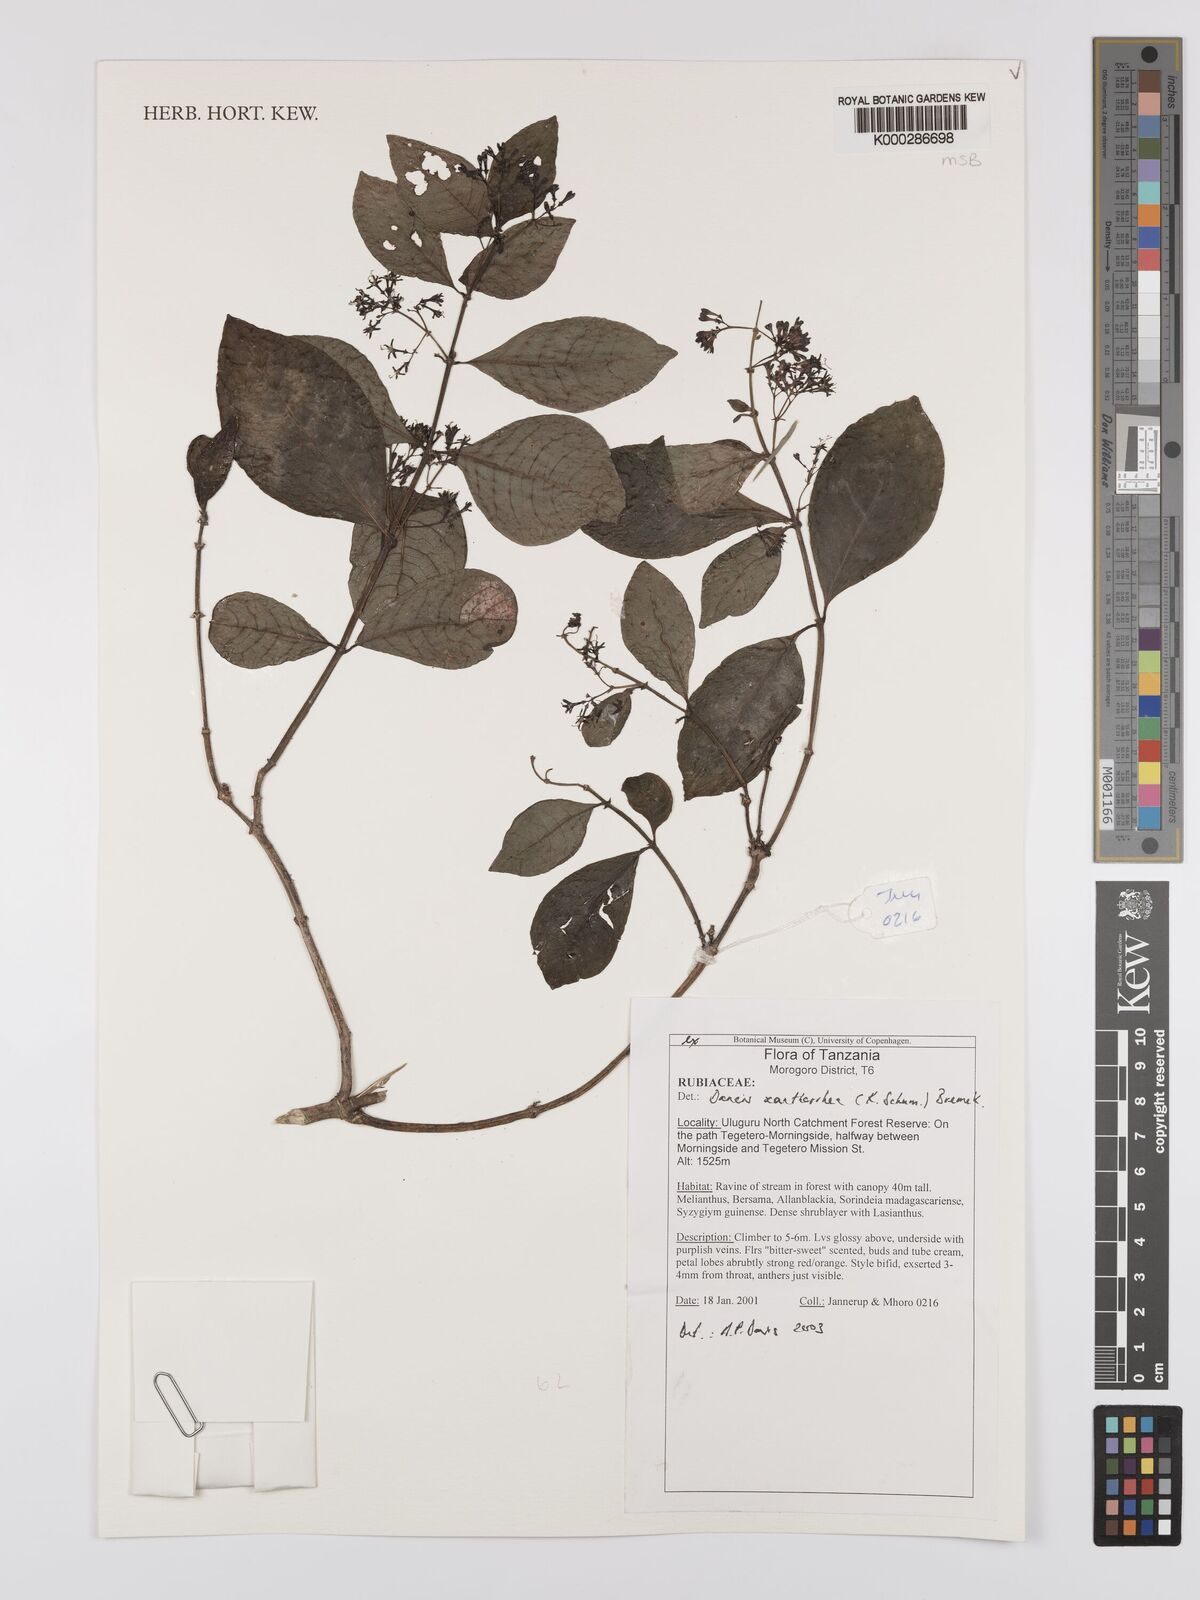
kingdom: Plantae
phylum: Tracheophyta
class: Magnoliopsida
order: Gentianales
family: Rubiaceae
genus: Danais
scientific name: Danais xanthorrhoea
